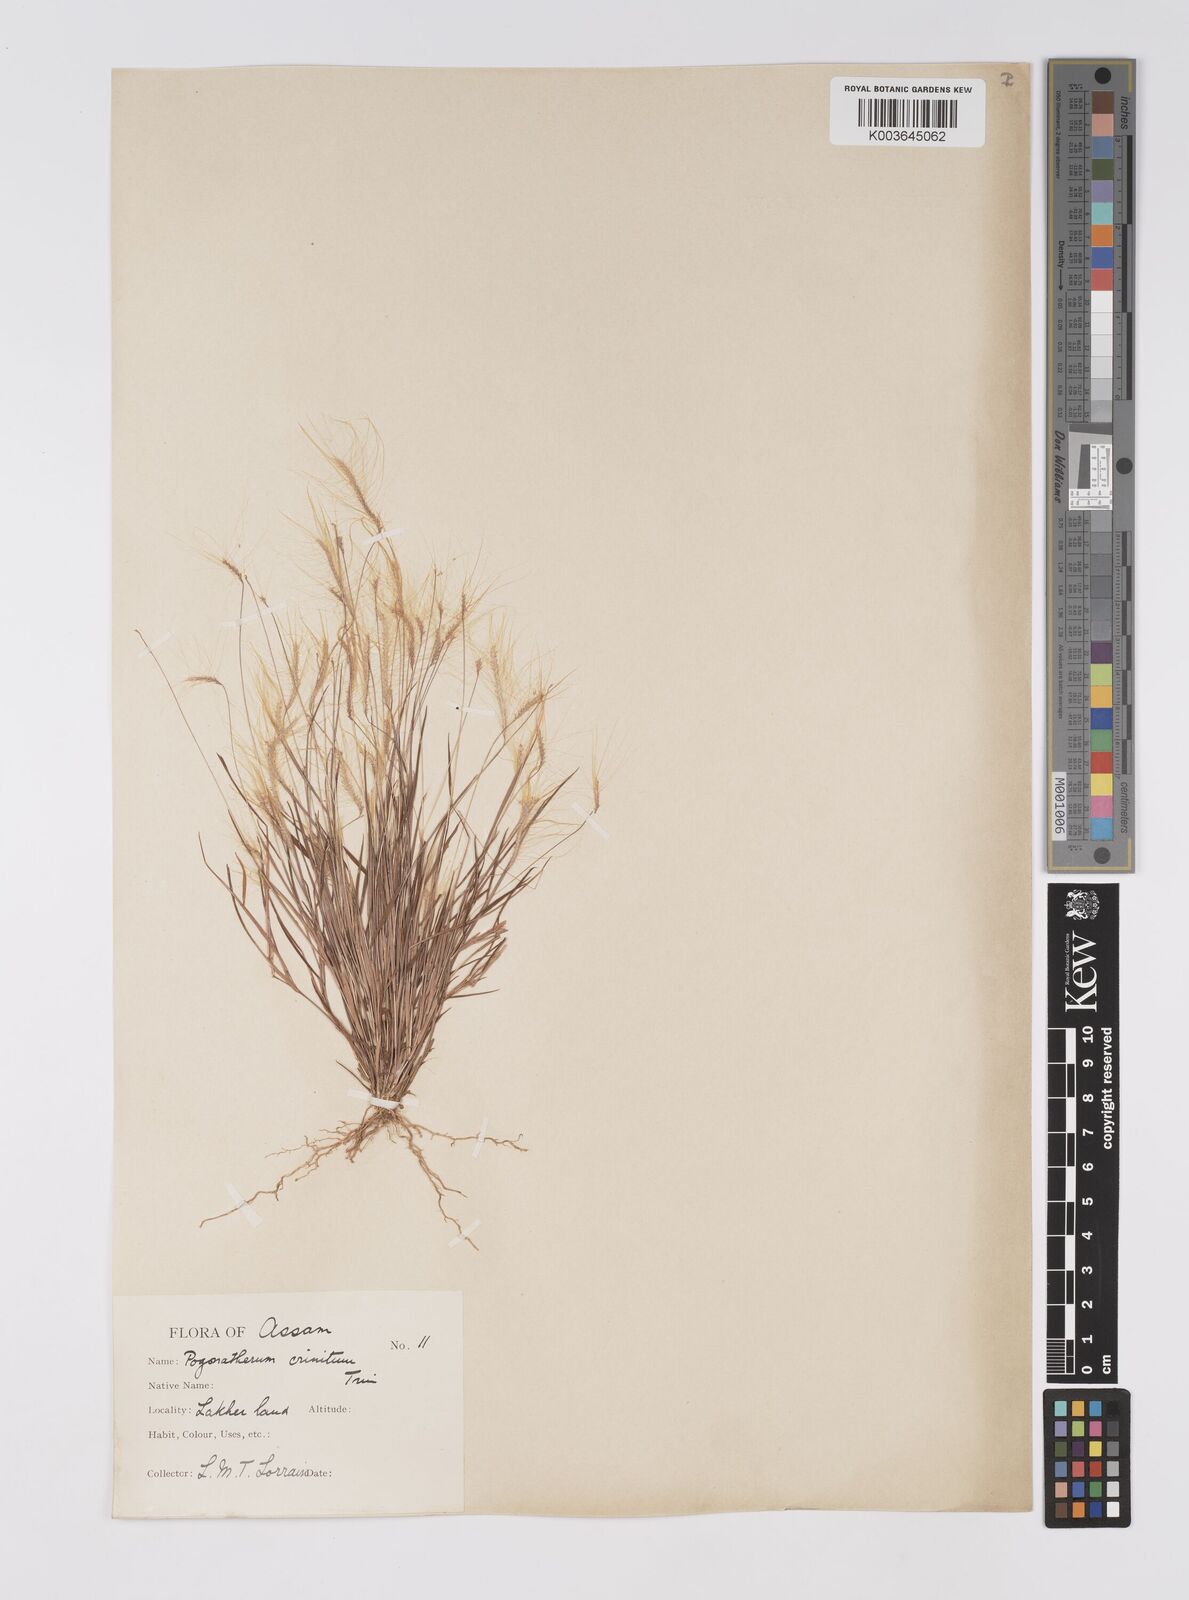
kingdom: Plantae
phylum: Tracheophyta
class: Liliopsida
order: Poales
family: Poaceae
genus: Pogonatherum
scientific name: Pogonatherum crinitum
